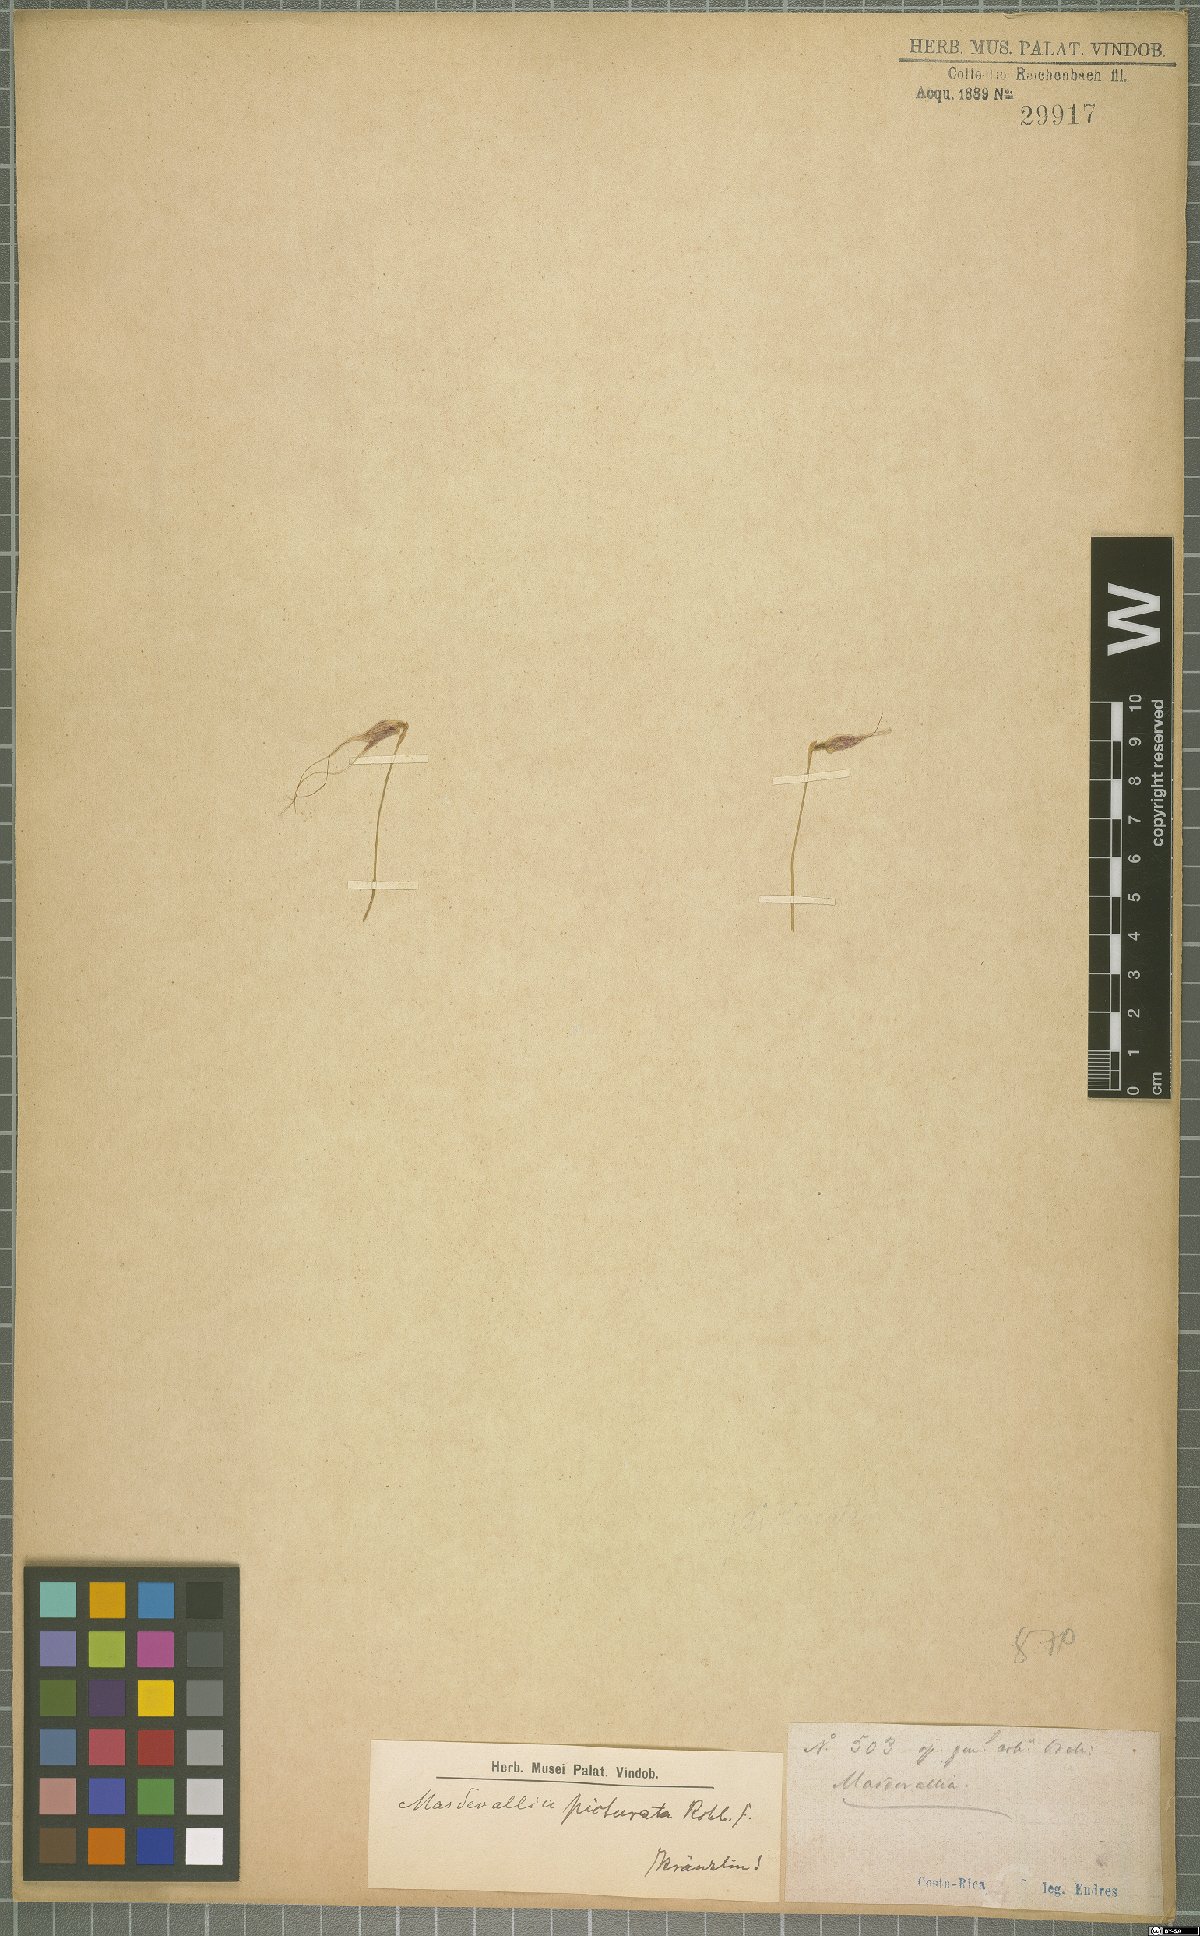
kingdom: Plantae
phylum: Tracheophyta
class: Liliopsida
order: Asparagales
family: Orchidaceae
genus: Masdevallia
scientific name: Masdevallia picturata
